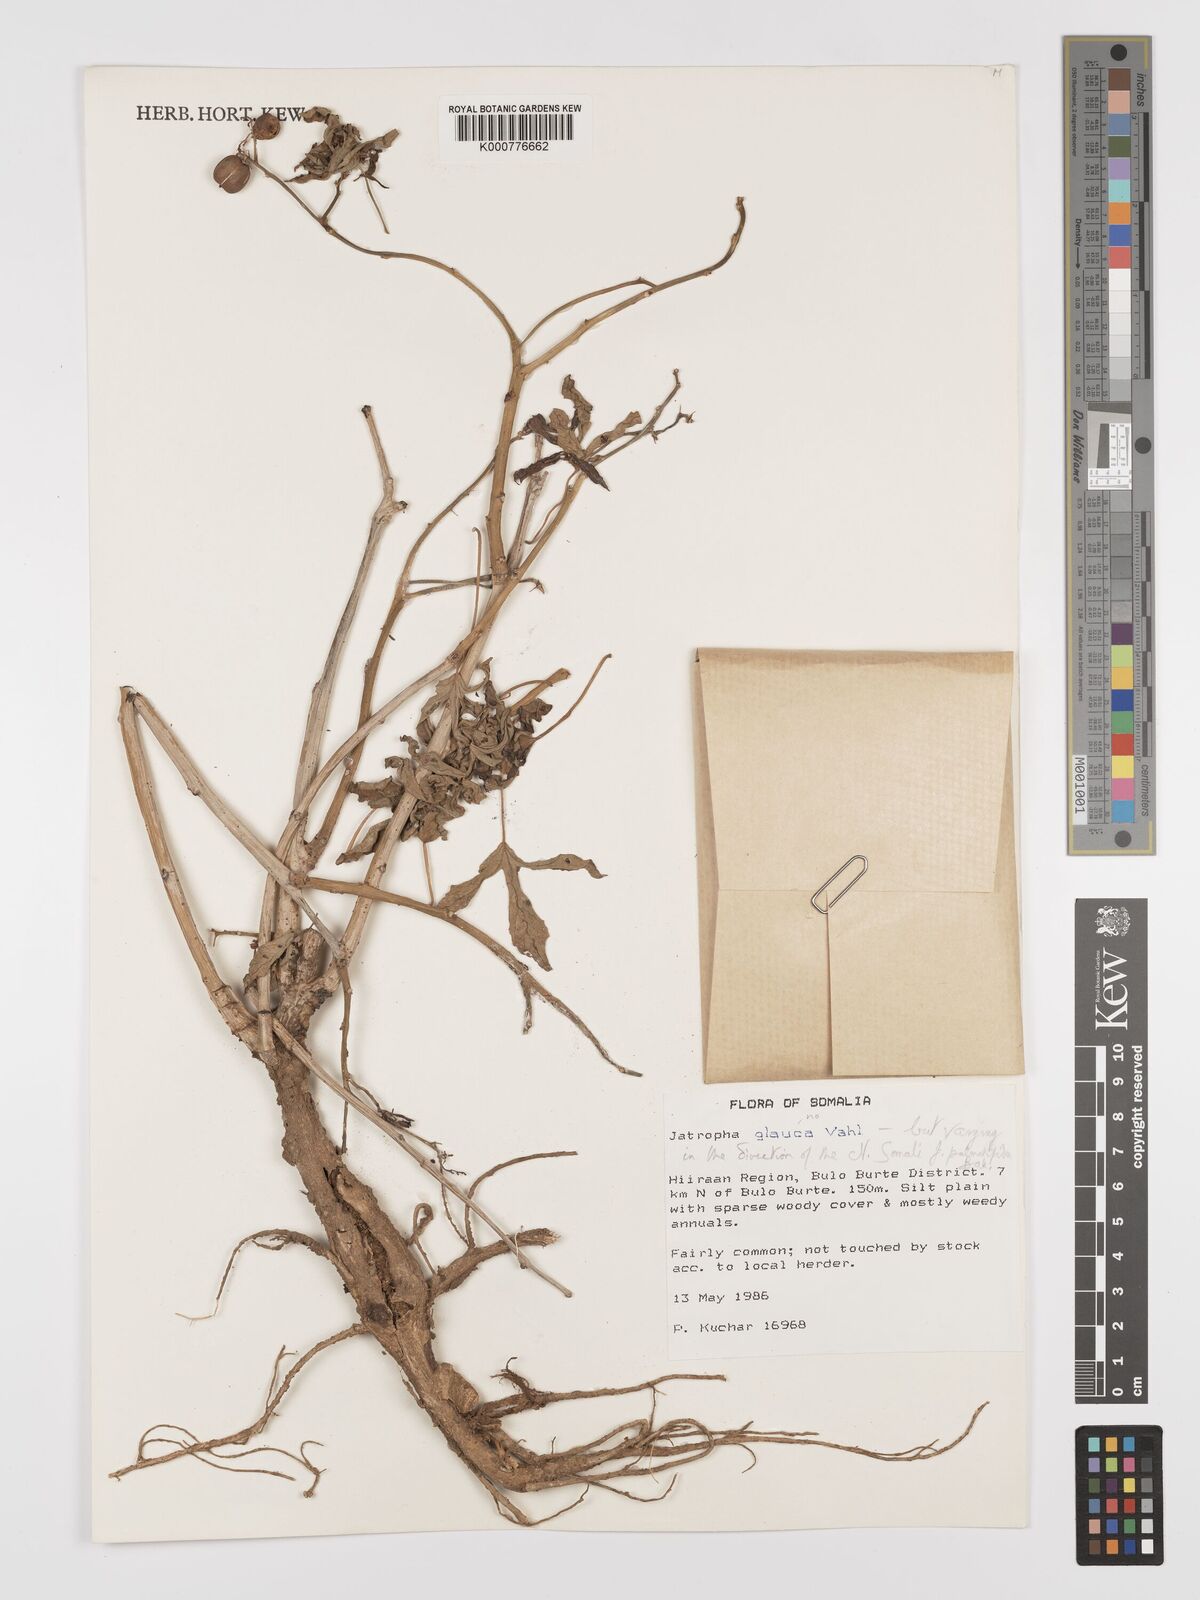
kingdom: Plantae
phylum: Tracheophyta
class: Magnoliopsida
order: Malpighiales
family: Euphorbiaceae
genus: Jatropha
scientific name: Jatropha trifida
